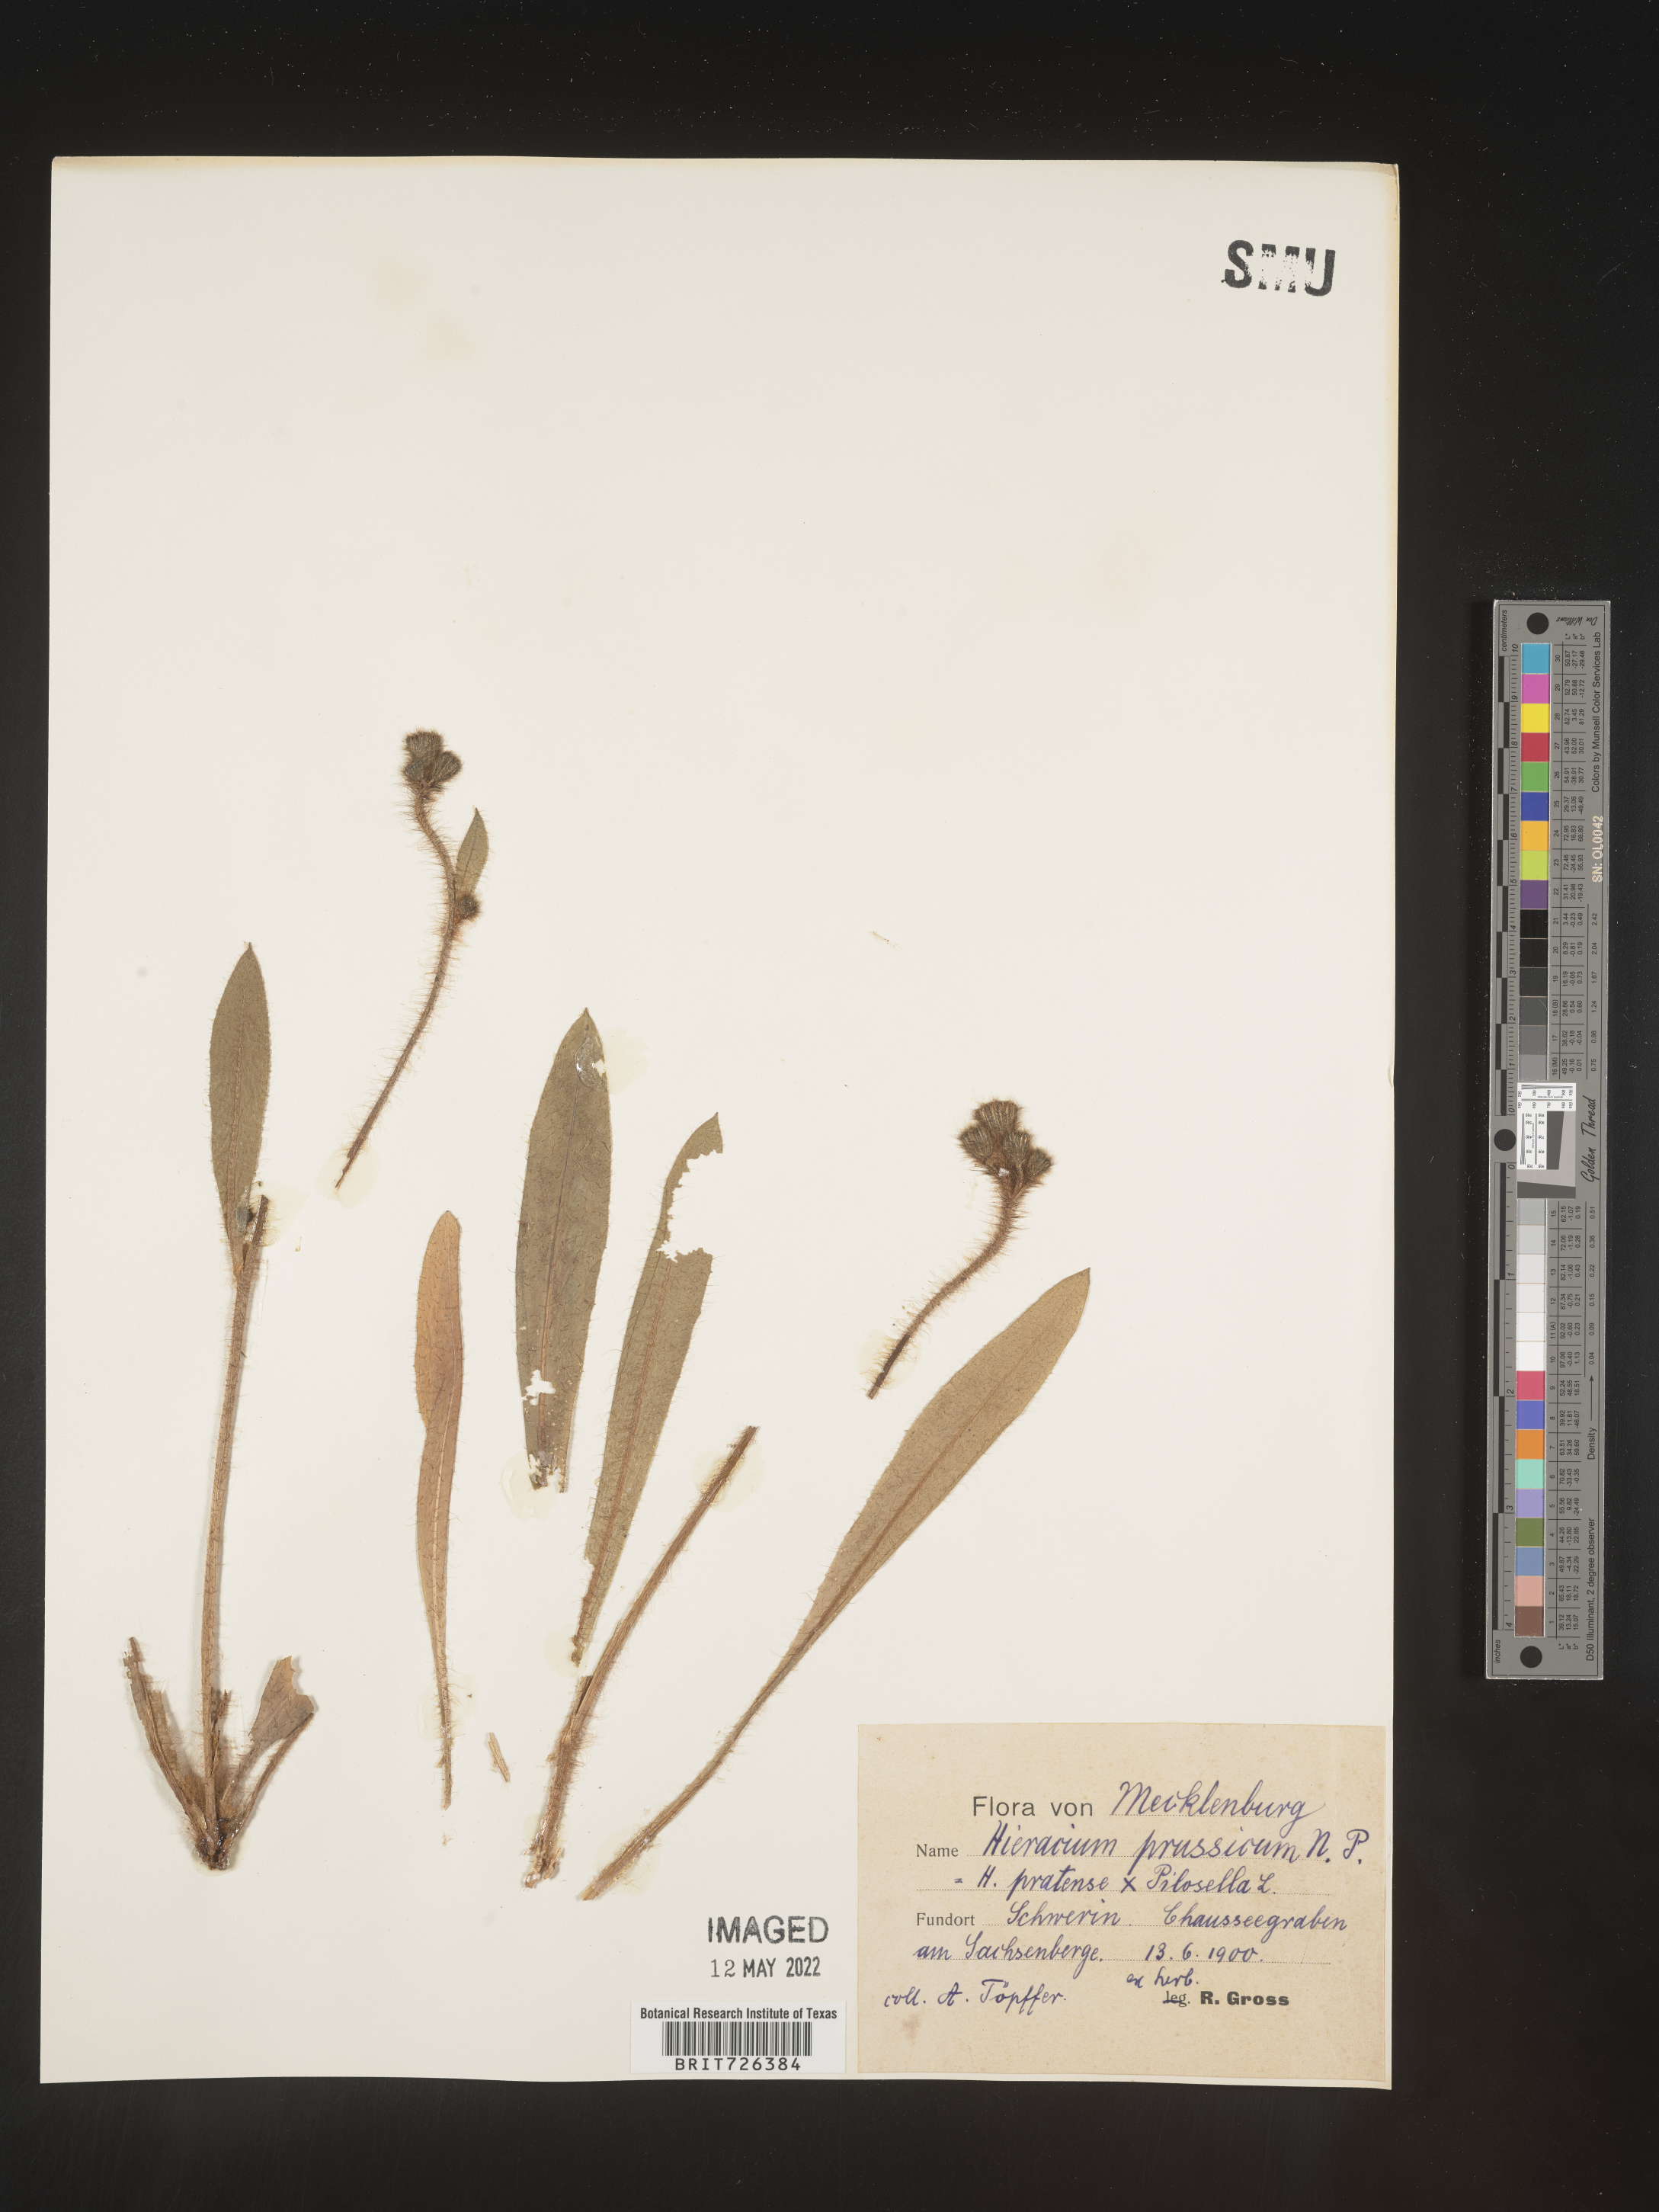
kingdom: Plantae
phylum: Tracheophyta
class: Magnoliopsida
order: Asterales
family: Asteraceae
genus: Hieracium
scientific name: Hieracium
